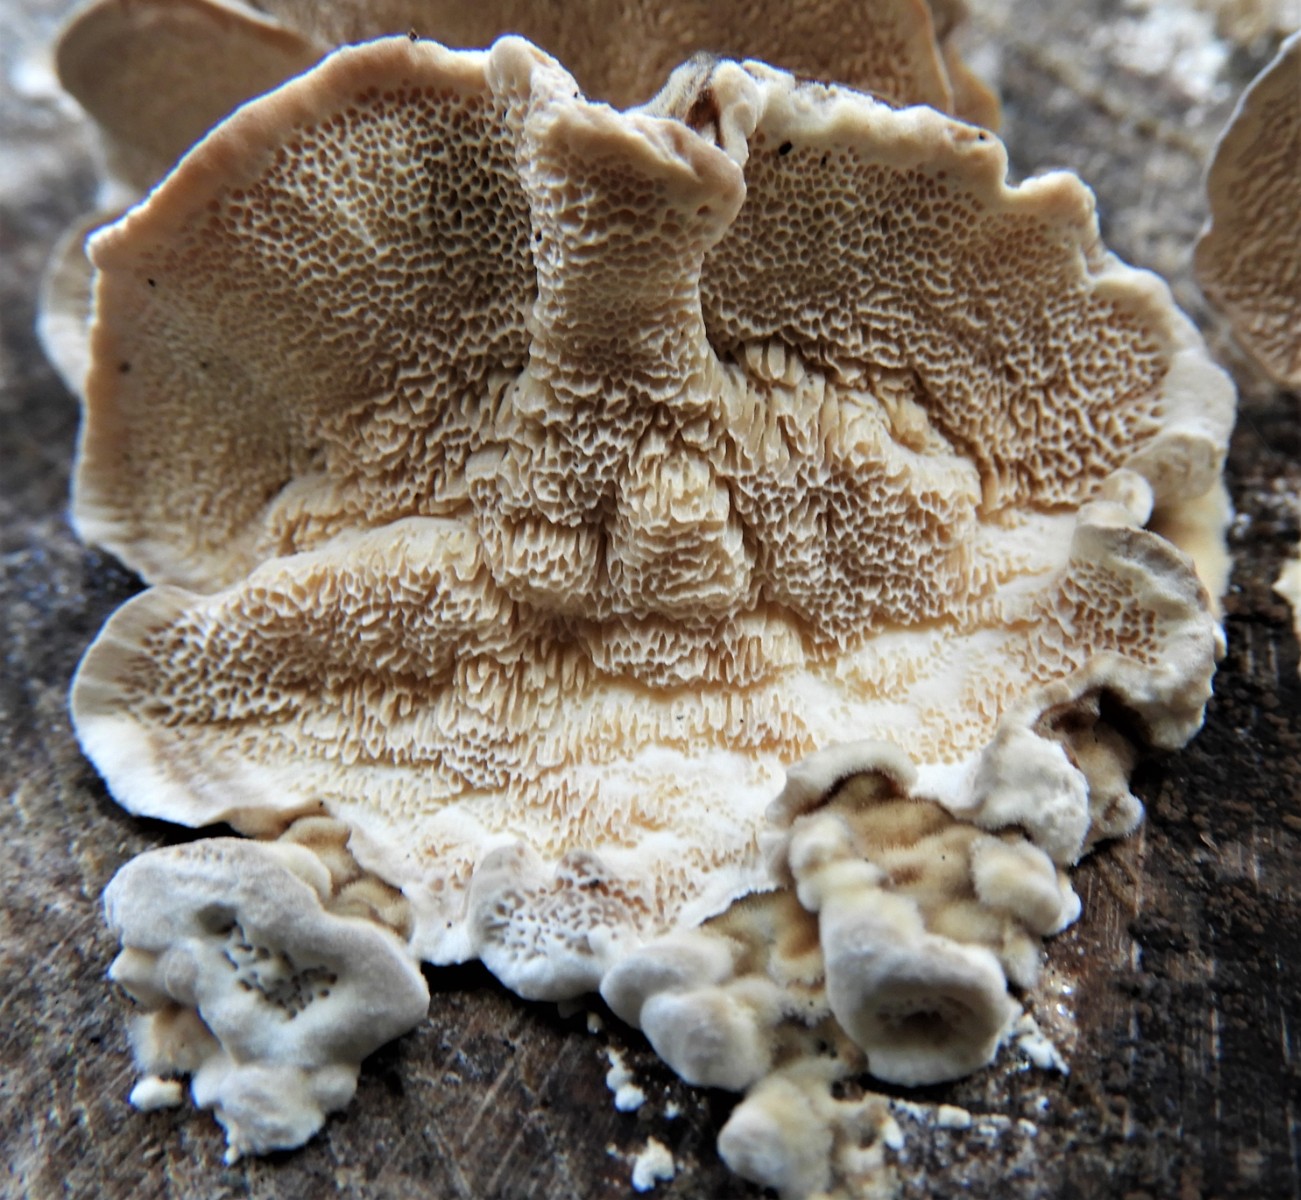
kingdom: Fungi
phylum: Basidiomycota
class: Agaricomycetes
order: Polyporales
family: Polyporaceae
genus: Trametes
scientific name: Trametes versicolor
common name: broget læderporesvamp
